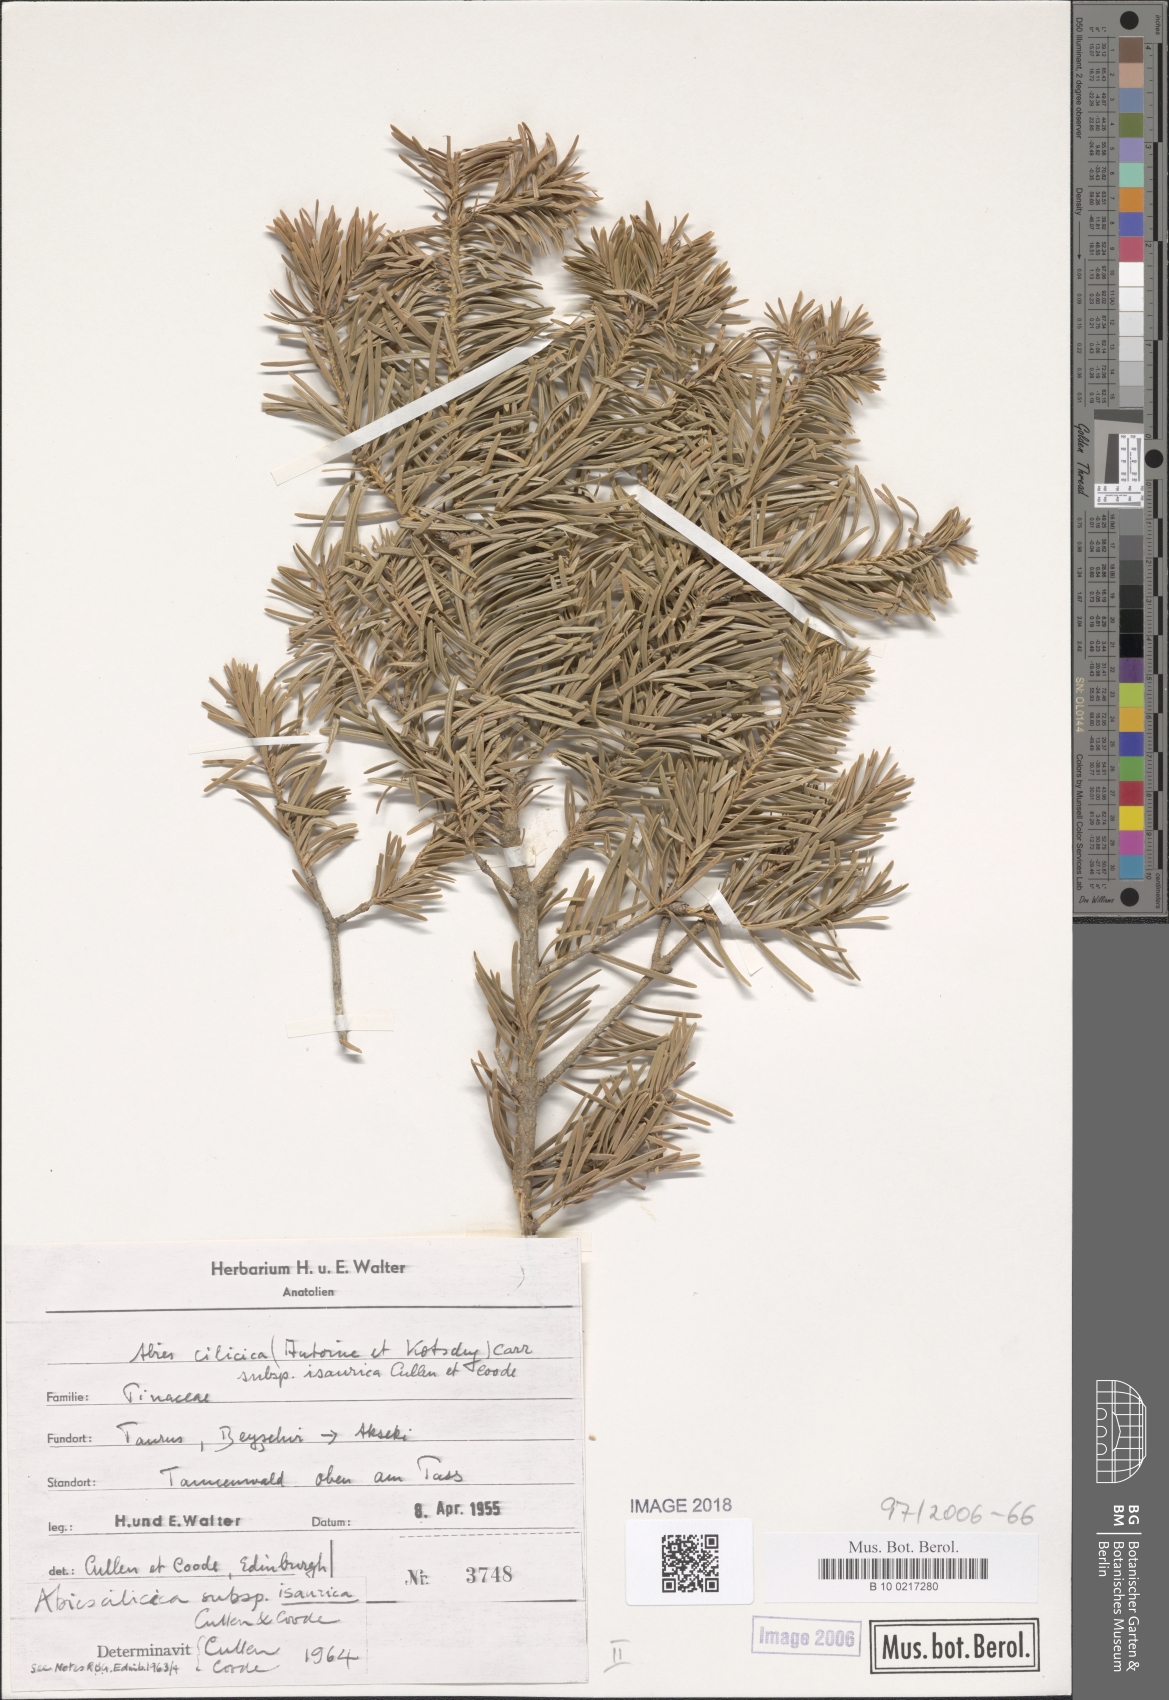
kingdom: Plantae
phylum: Tracheophyta
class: Pinopsida
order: Pinales
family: Pinaceae
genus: Abies
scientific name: Abies cilicica
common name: Cilician fir
